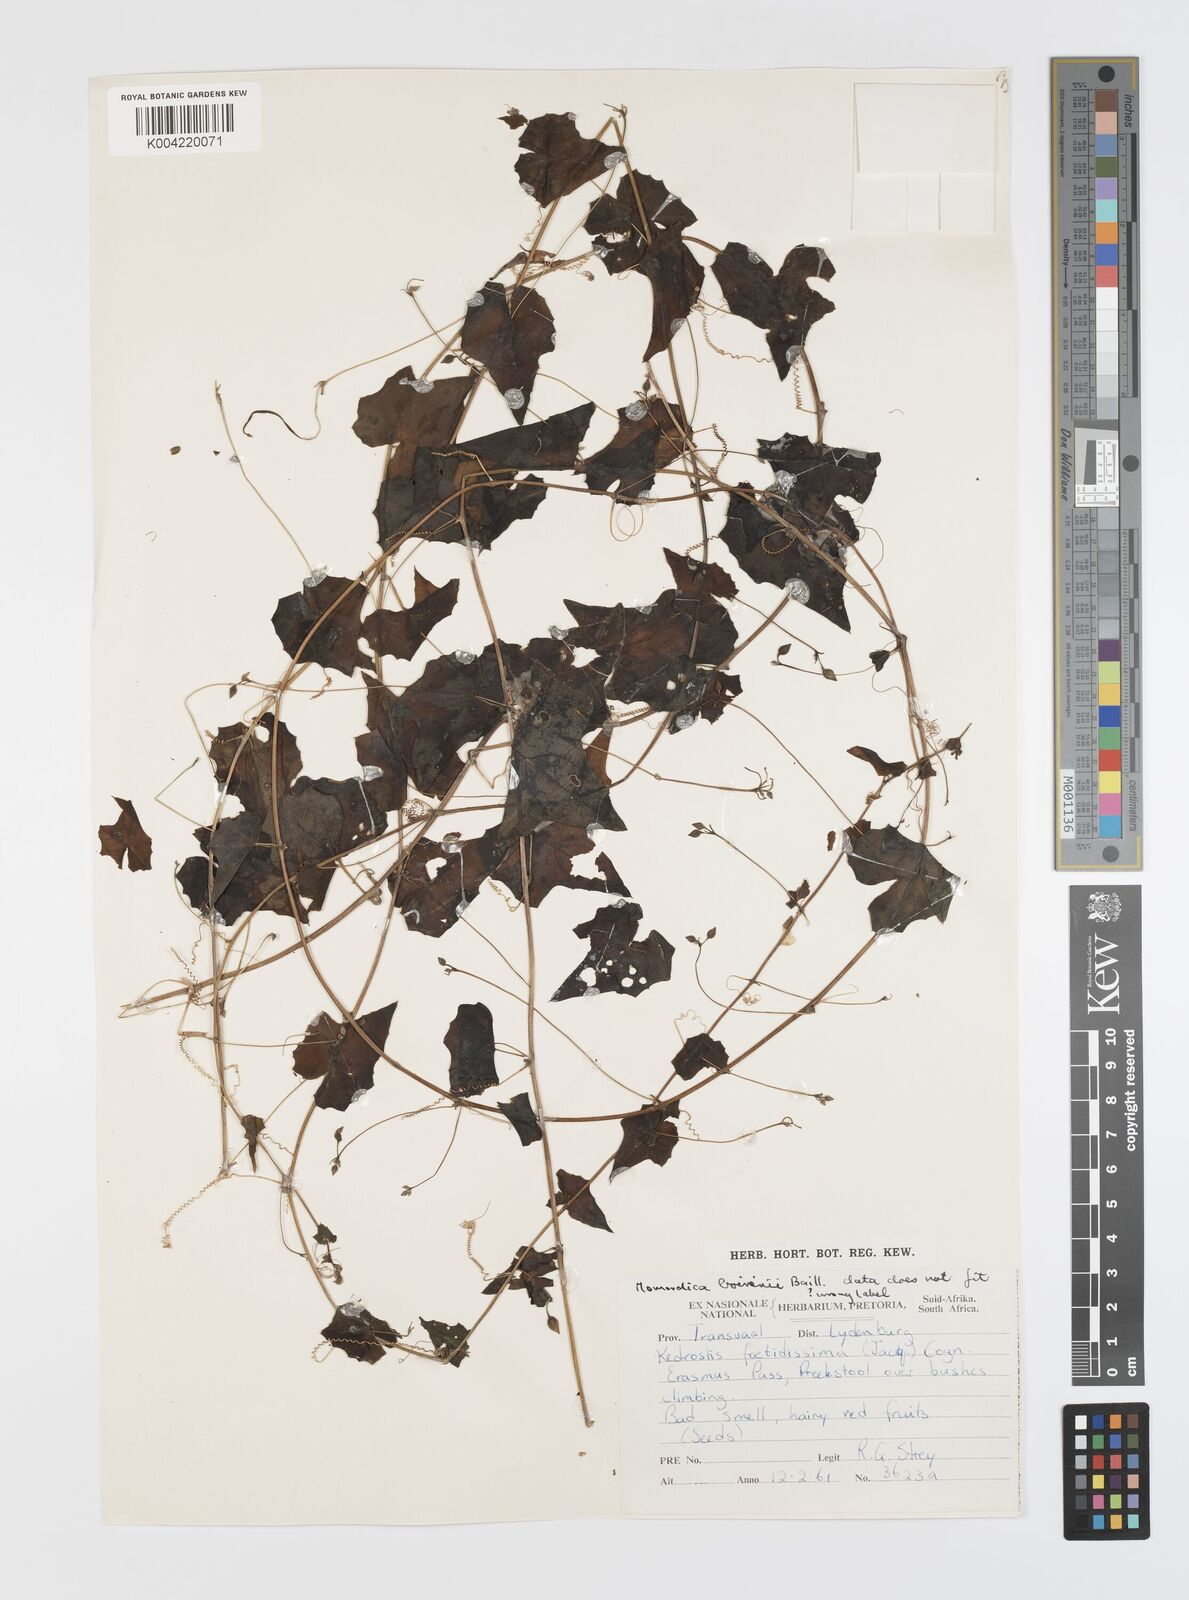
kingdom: Plantae
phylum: Tracheophyta
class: Magnoliopsida
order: Cucurbitales
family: Cucurbitaceae
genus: Momordica
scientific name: Momordica boivinii
